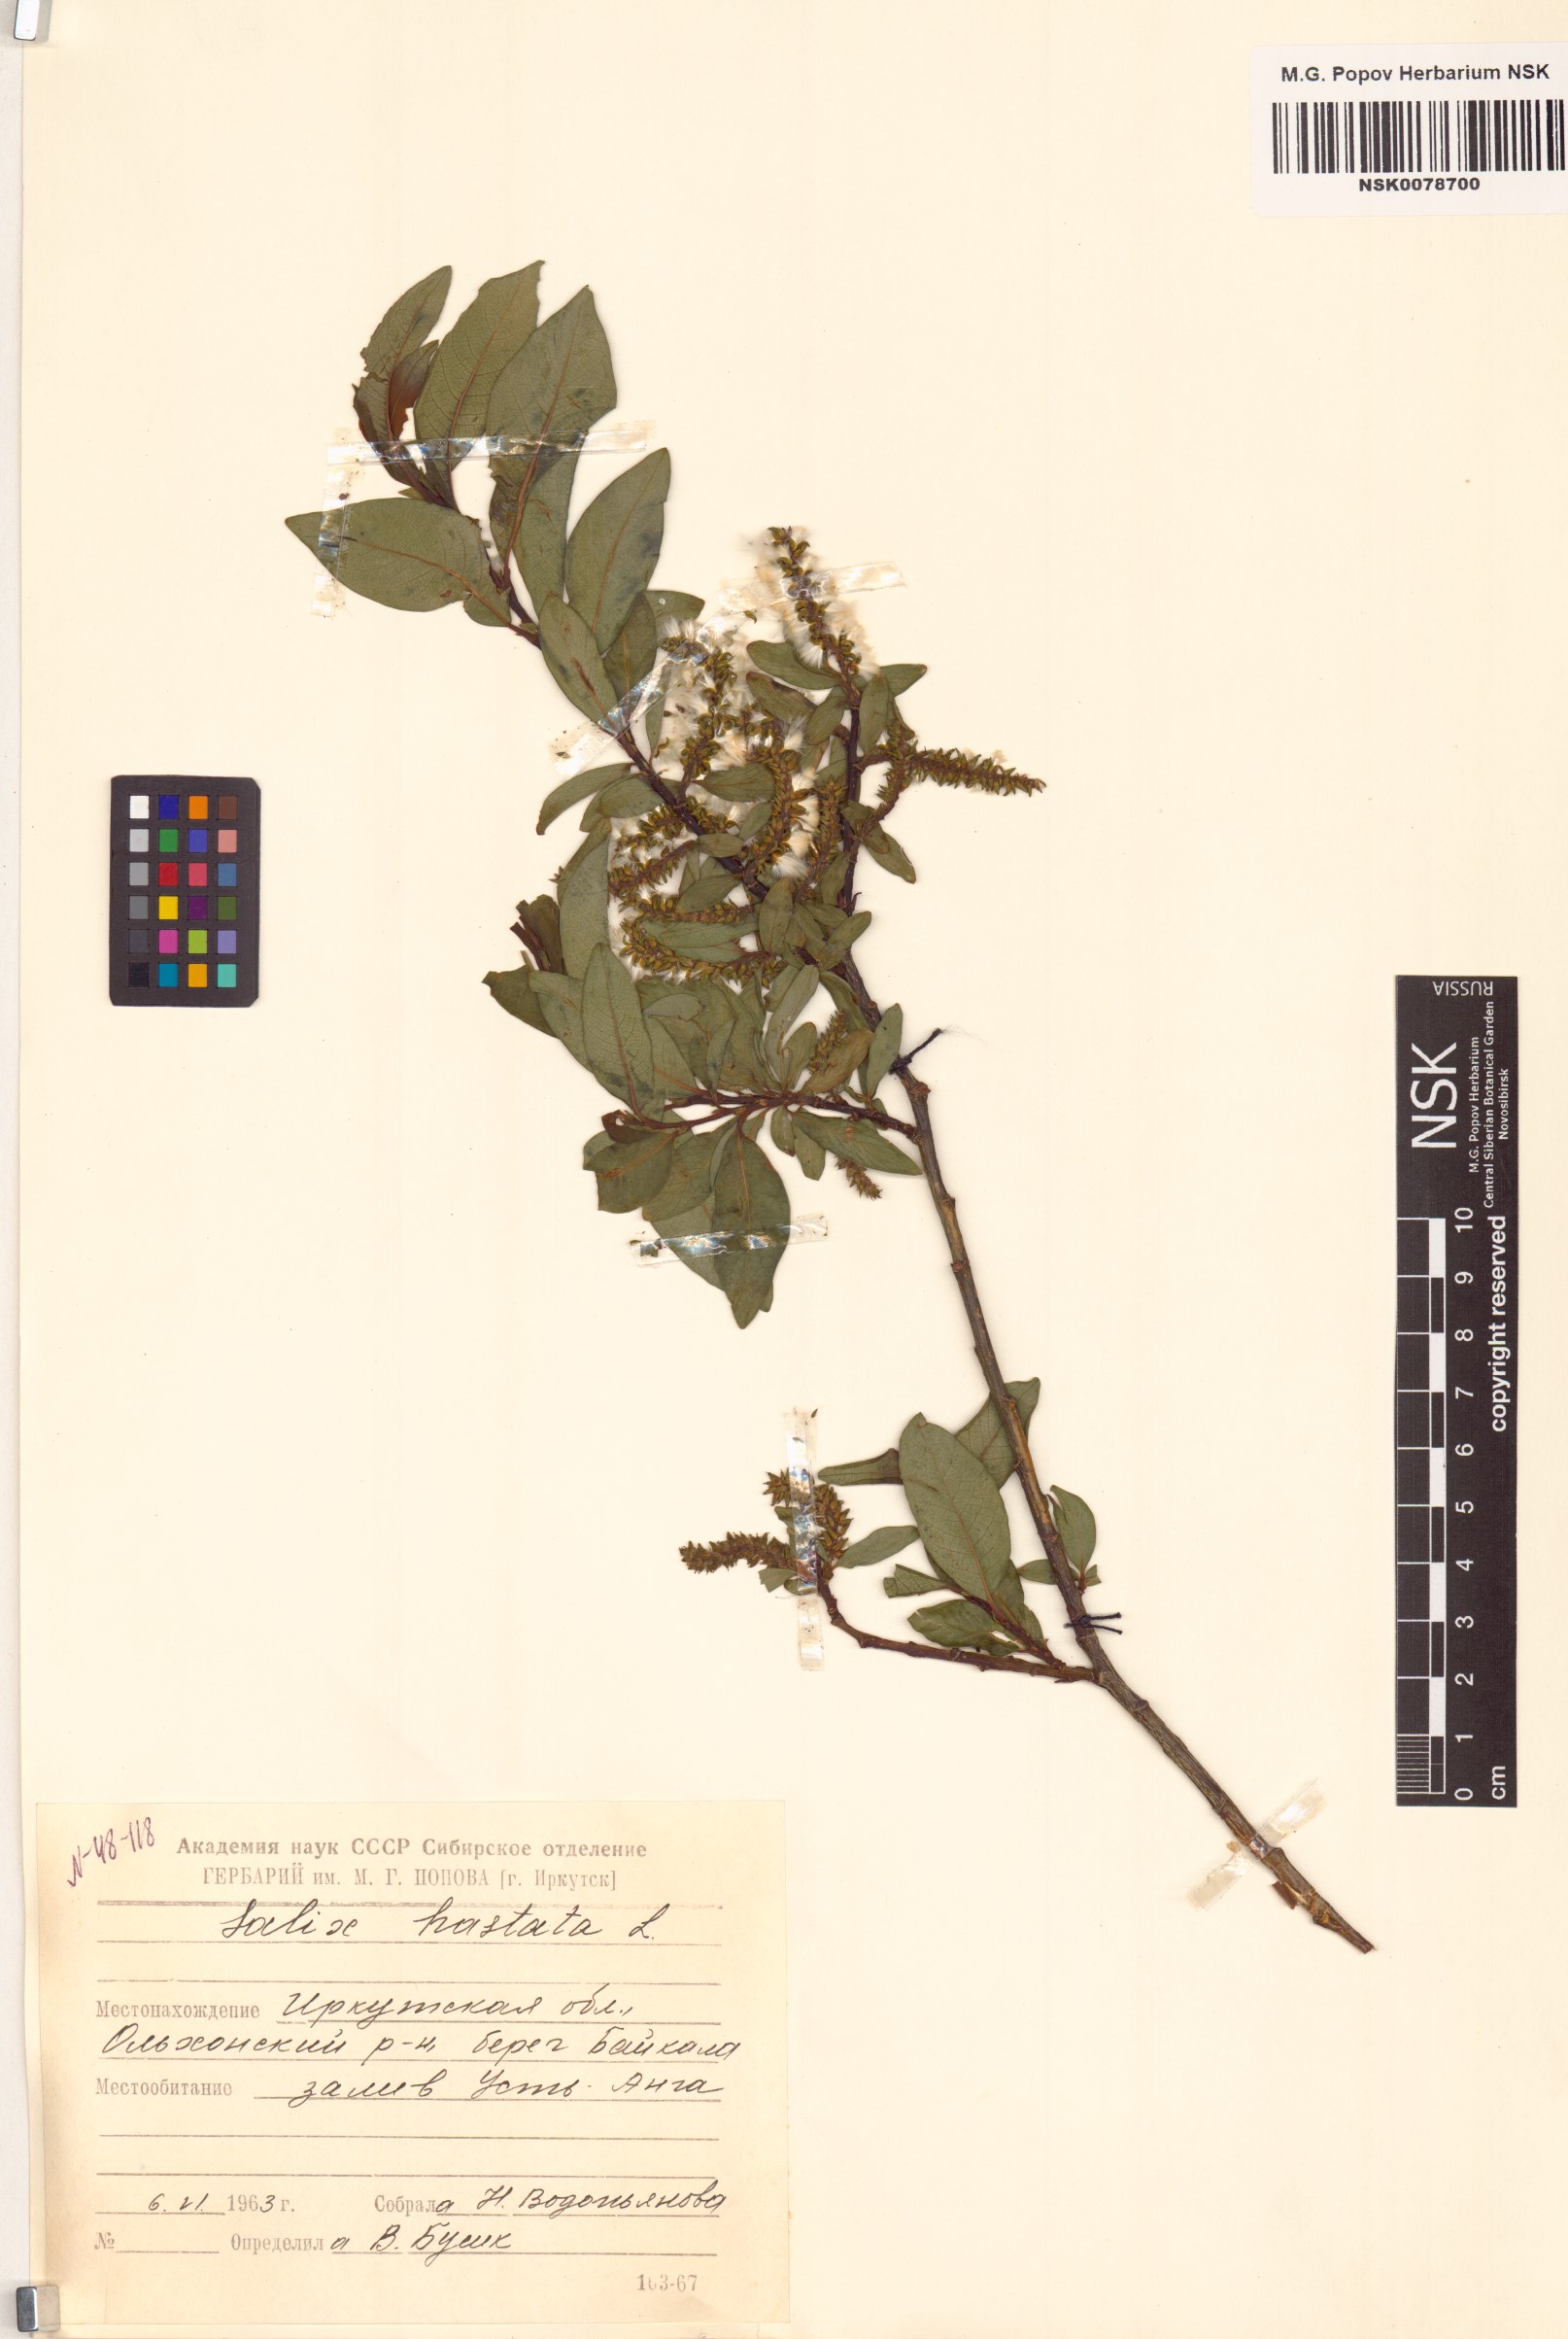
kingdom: Plantae
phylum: Tracheophyta
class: Magnoliopsida
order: Malpighiales
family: Salicaceae
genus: Salix
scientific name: Salix hastata
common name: Halberd willow
